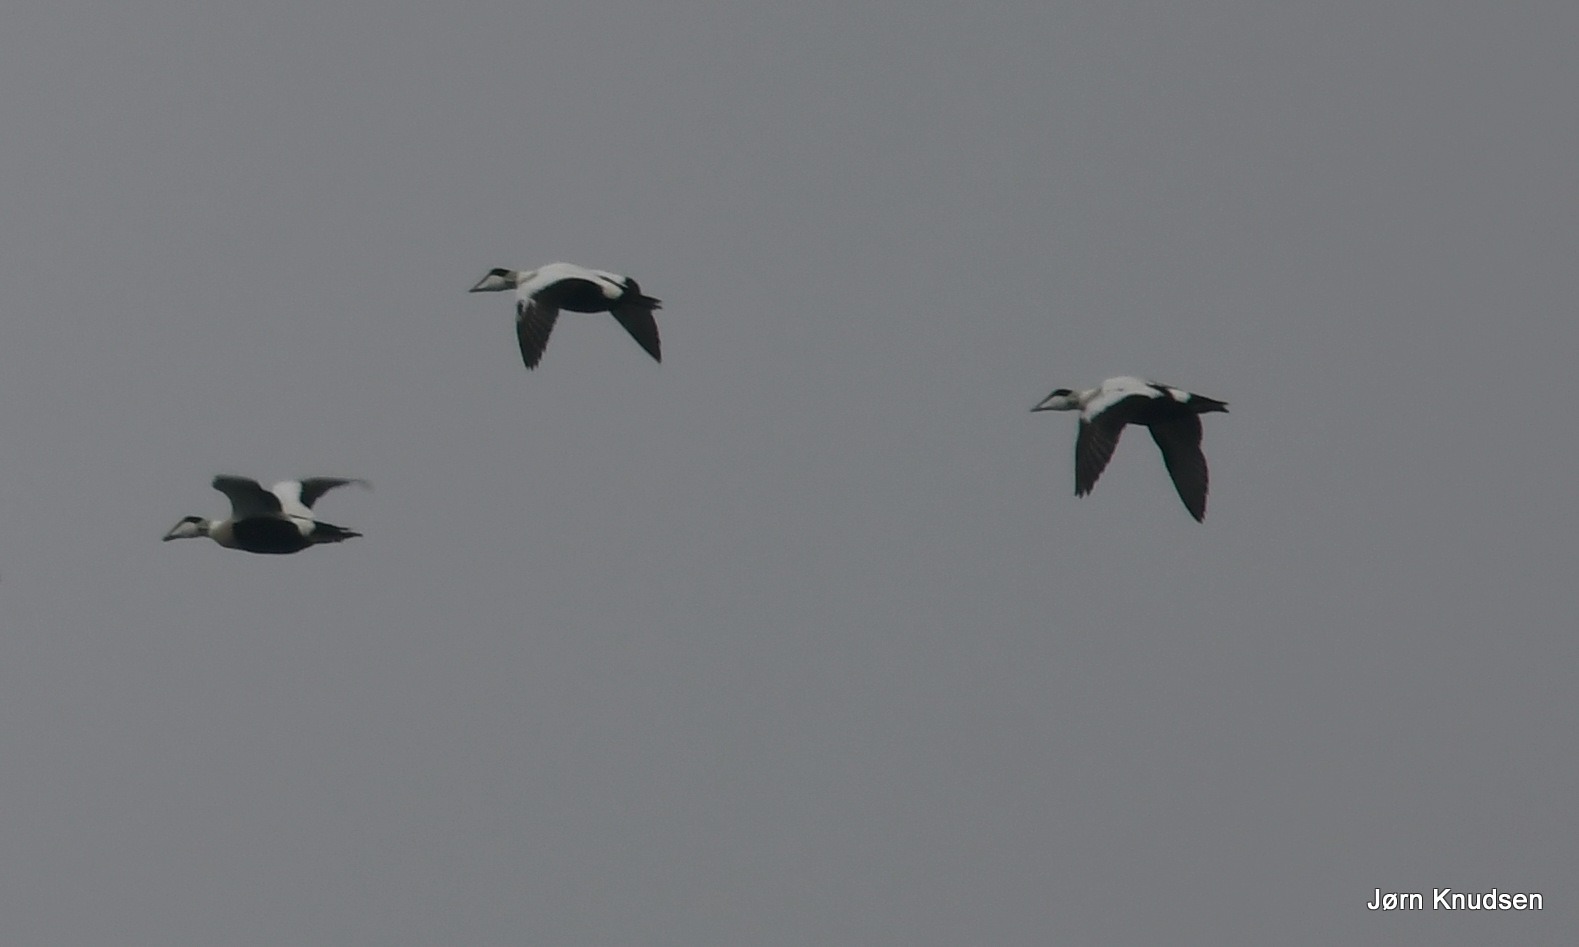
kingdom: Animalia
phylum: Chordata
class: Aves
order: Anseriformes
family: Anatidae
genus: Somateria
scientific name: Somateria mollissima
